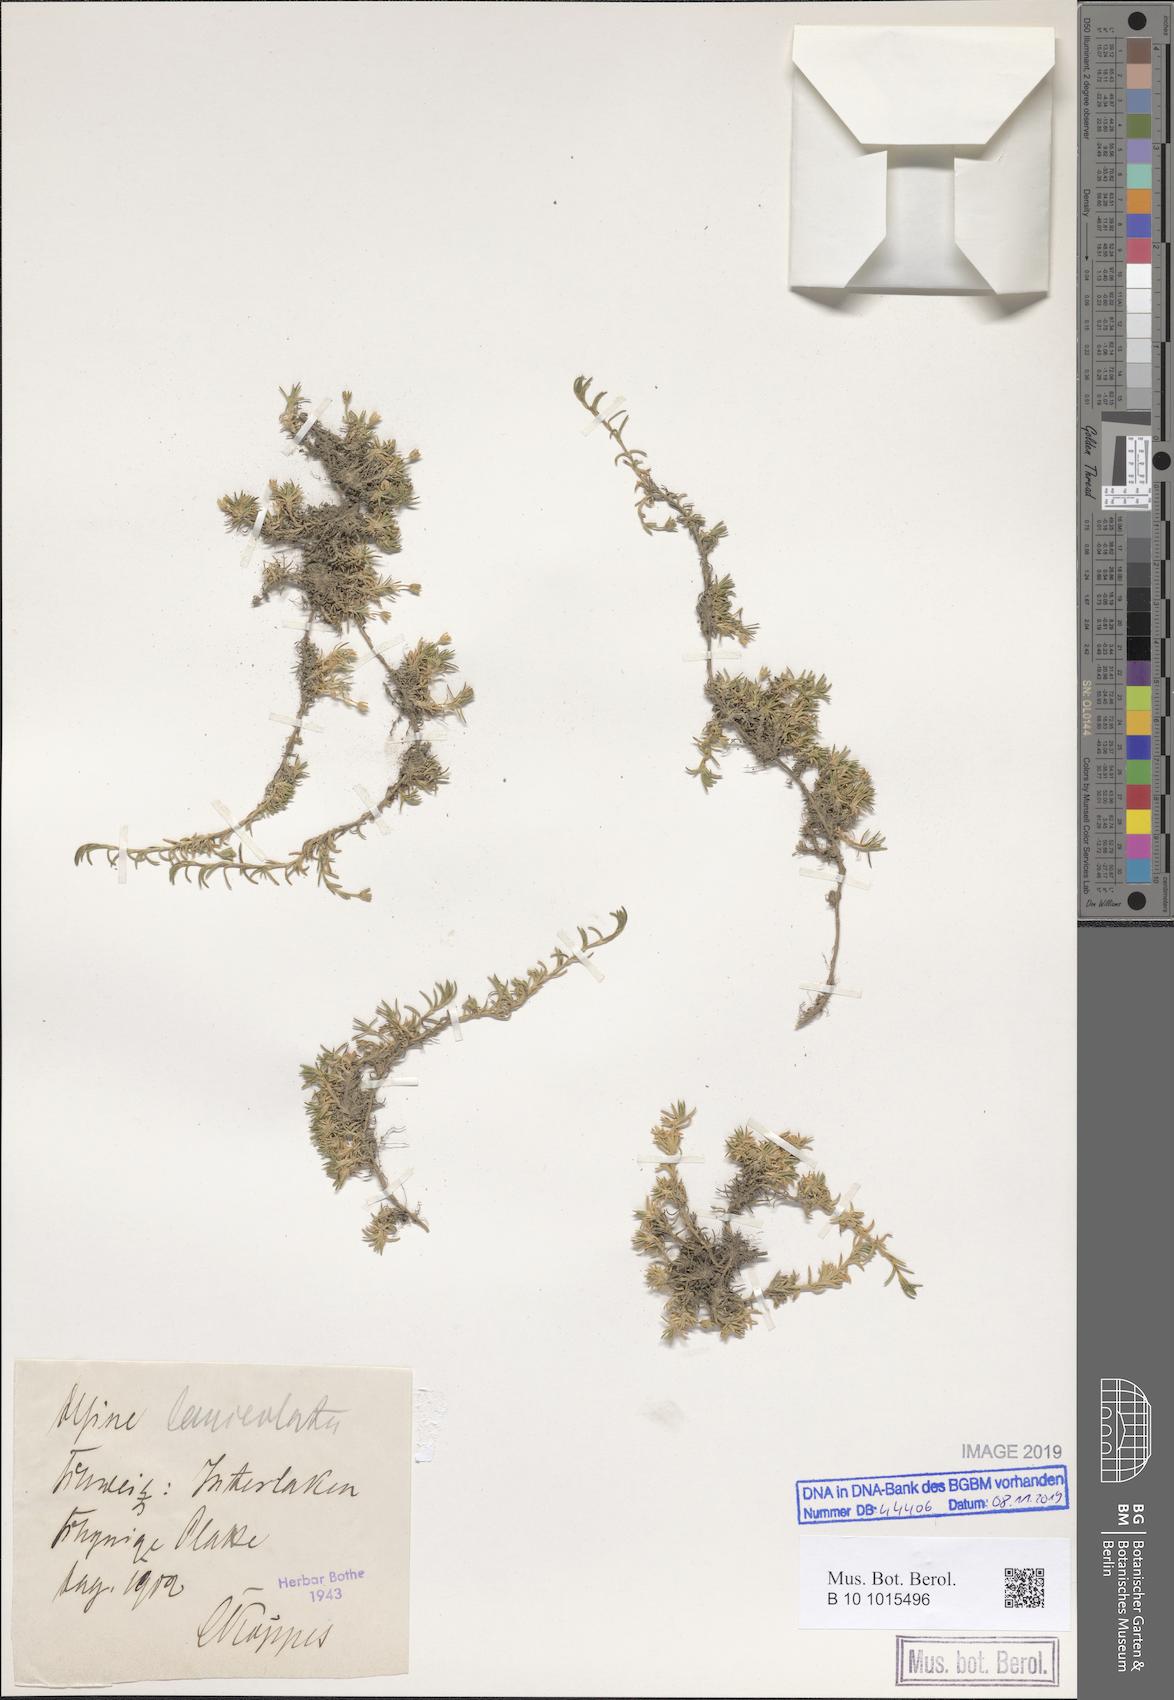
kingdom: Plantae
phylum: Tracheophyta
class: Magnoliopsida
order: Caryophyllales
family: Caryophyllaceae
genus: Facchinia
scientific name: Facchinia rupestris
